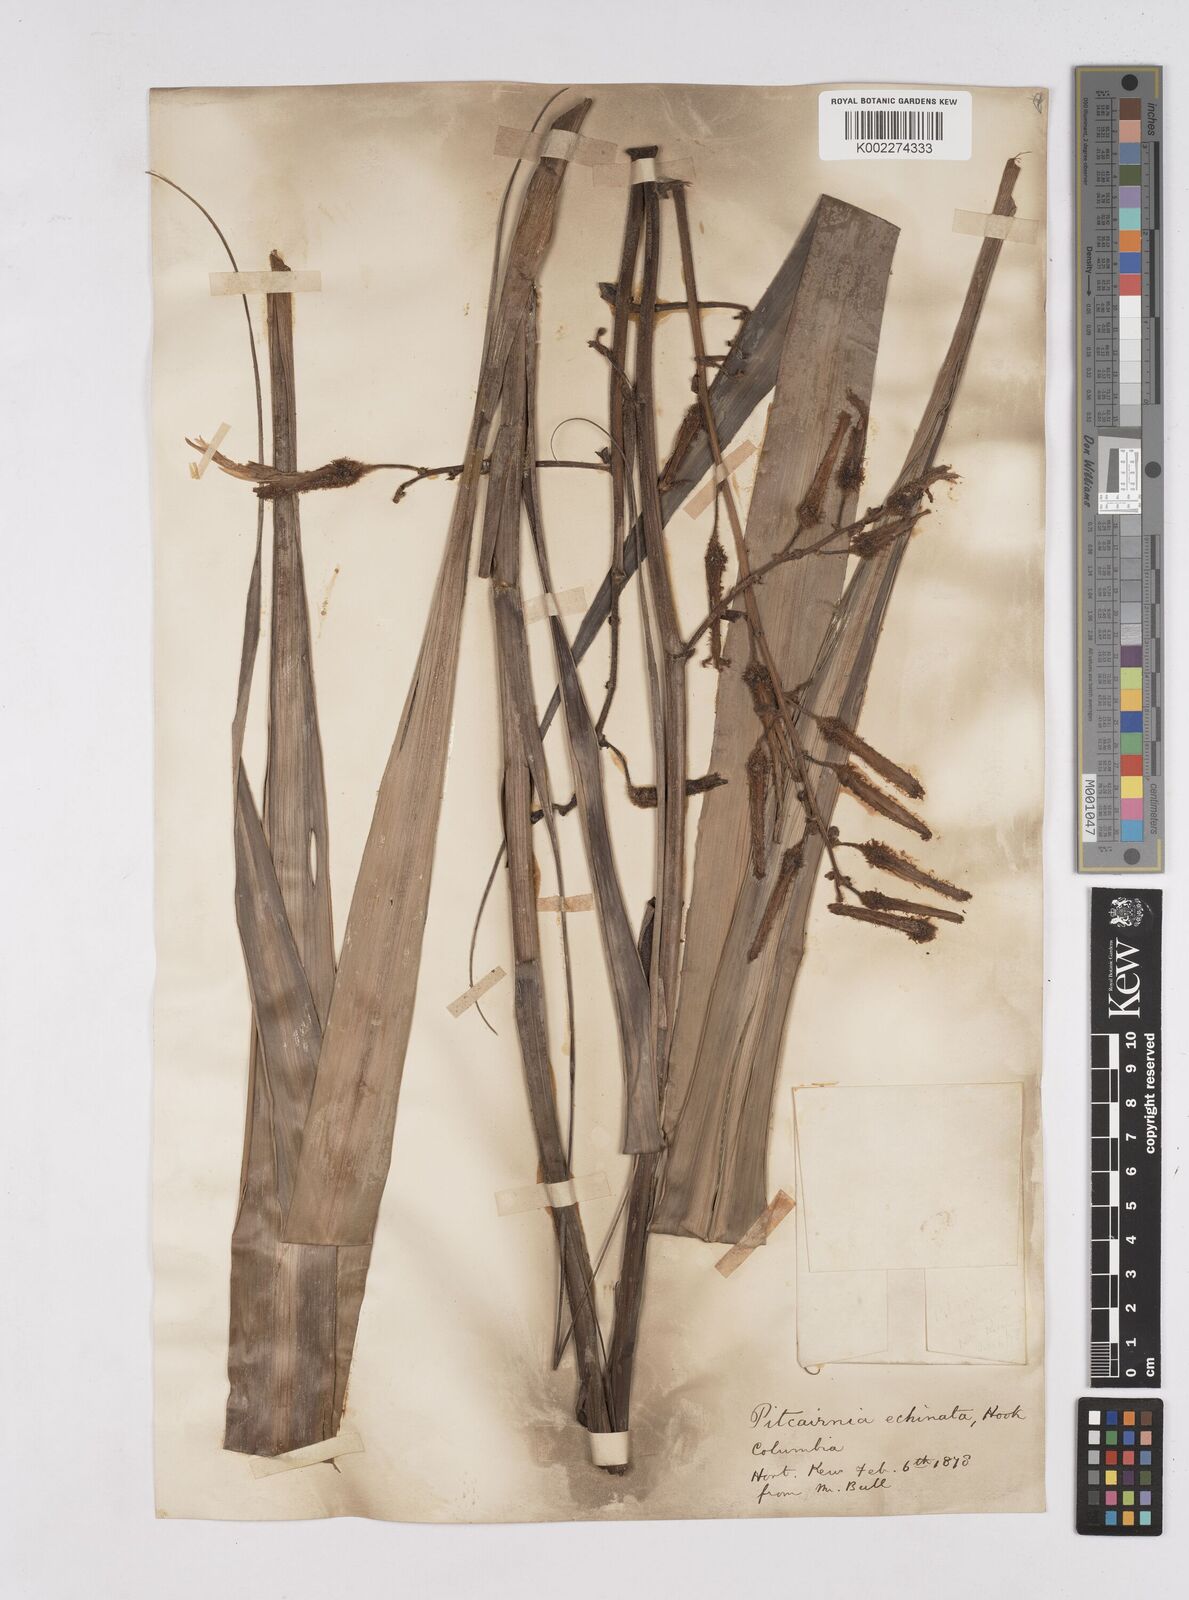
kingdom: Plantae
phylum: Tracheophyta
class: Liliopsida
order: Poales
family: Bromeliaceae
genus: Pitcairnia
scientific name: Pitcairnia echinata
